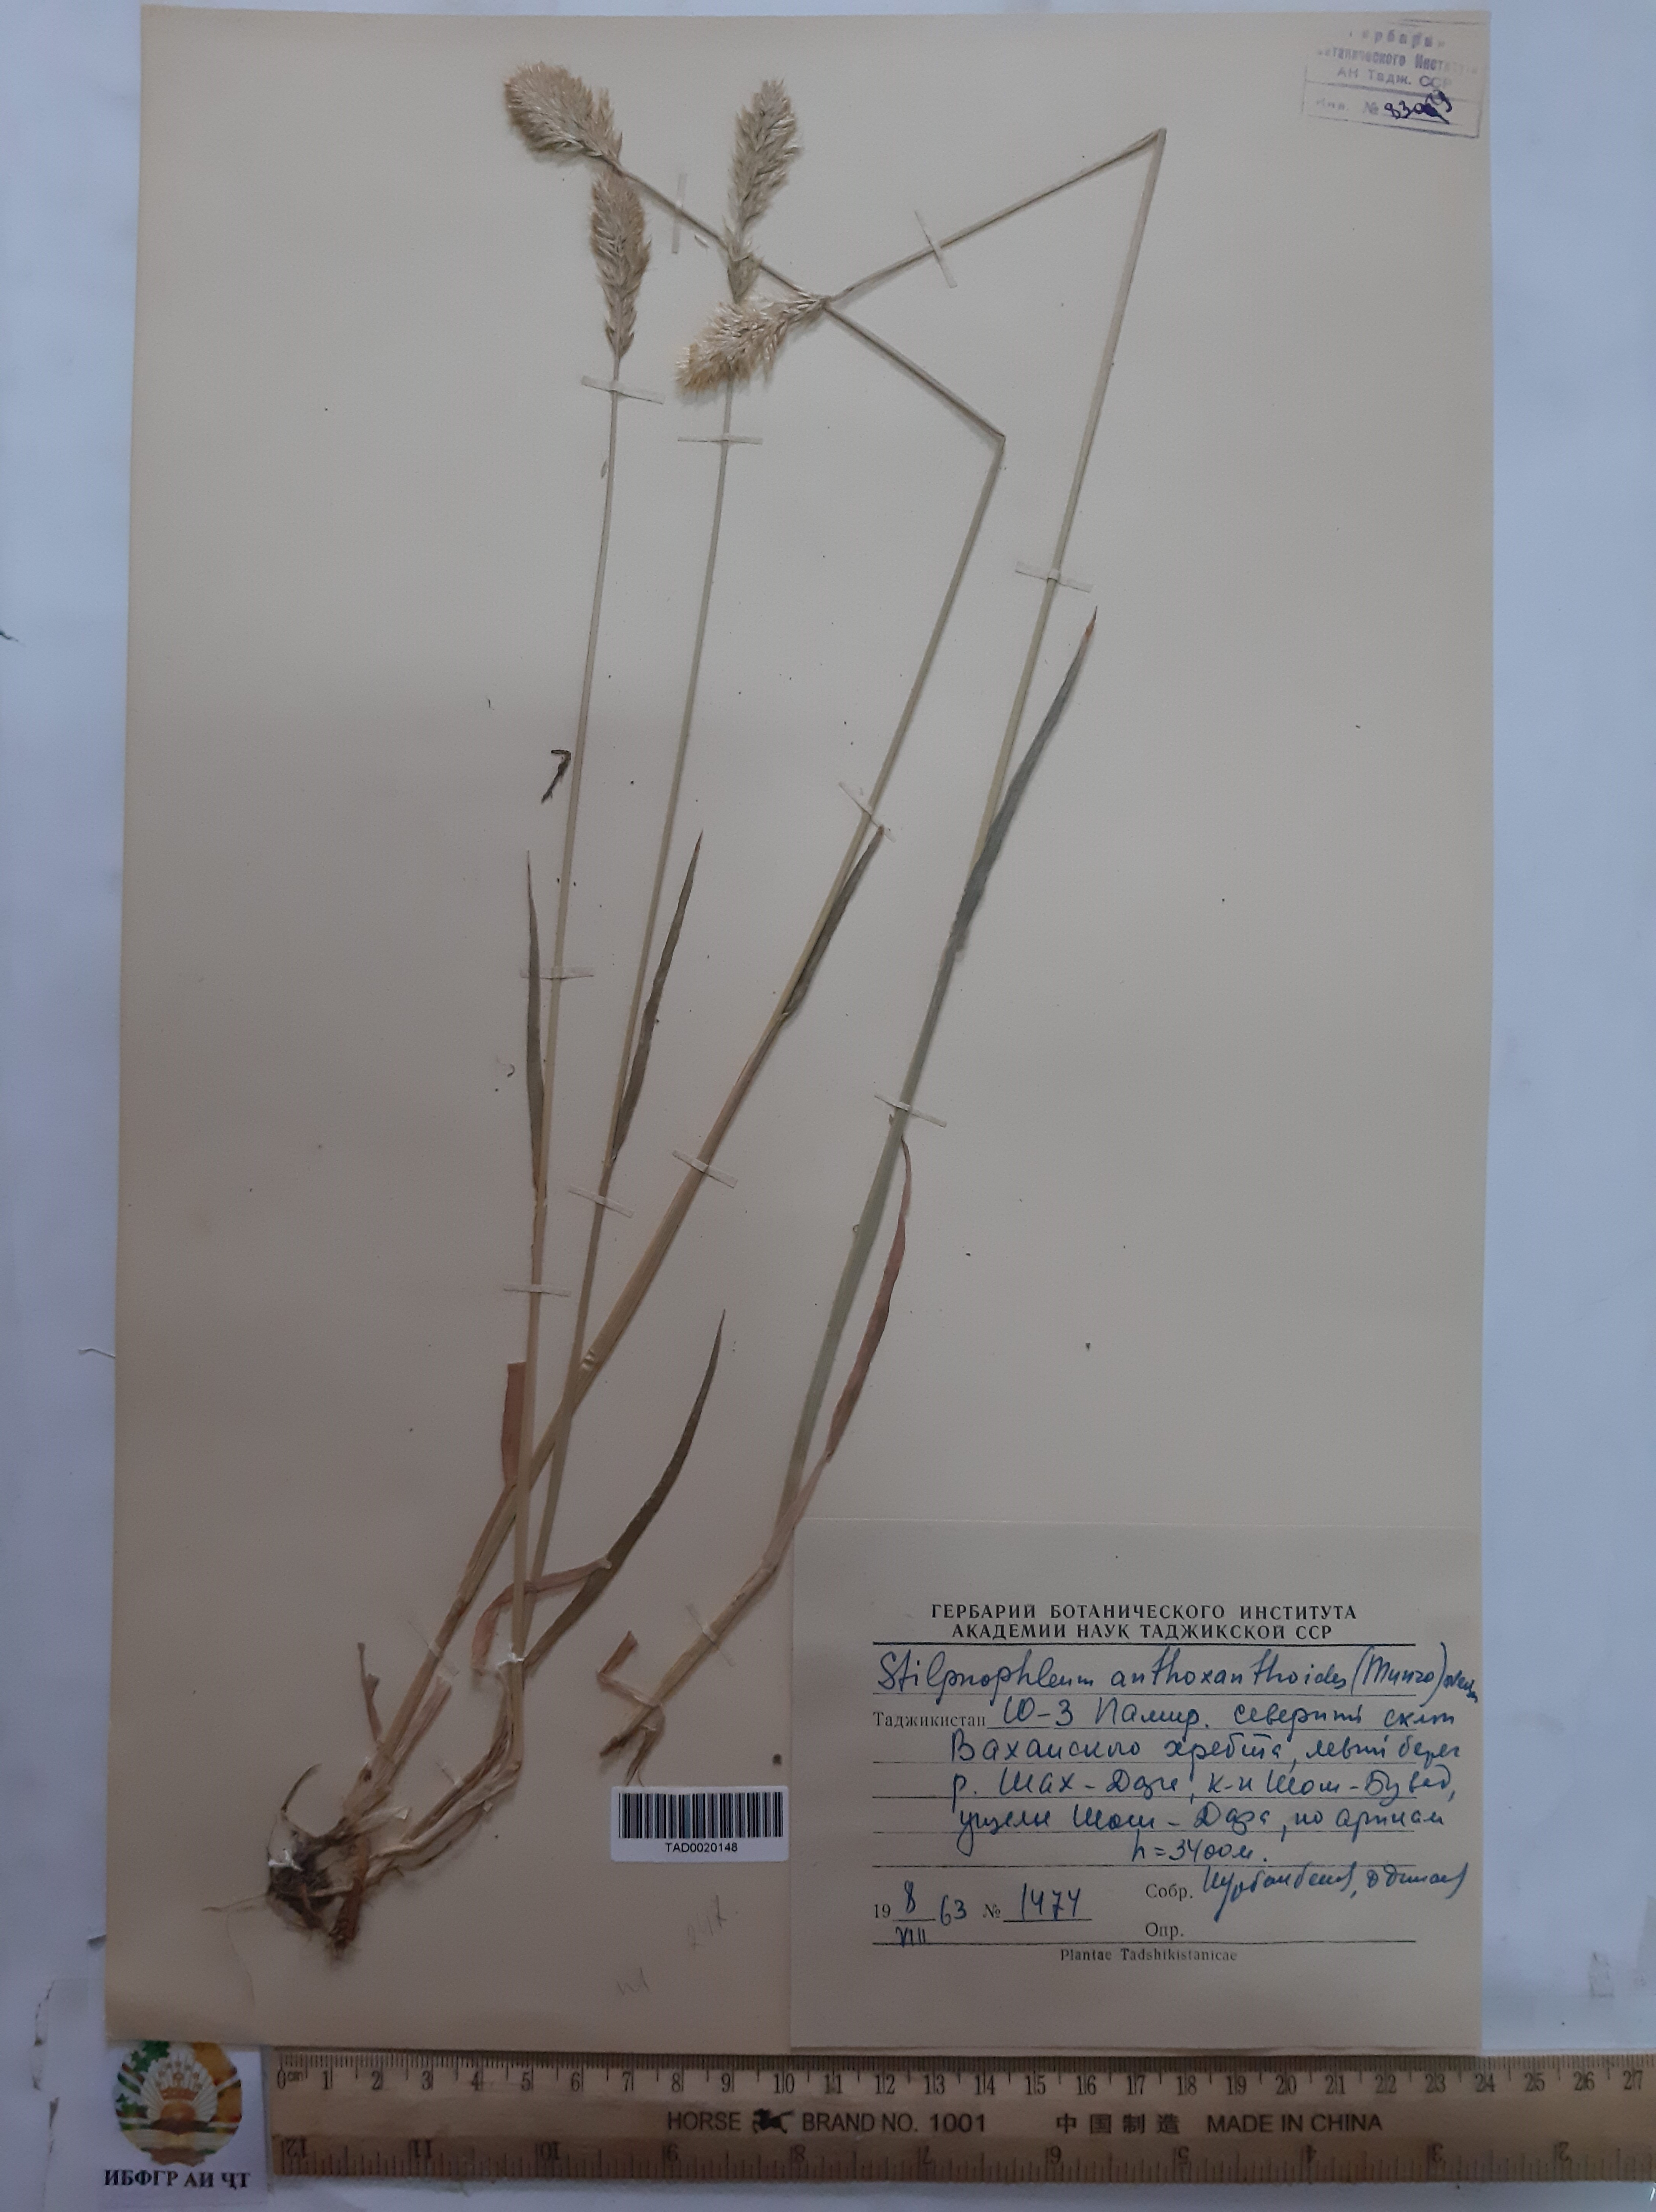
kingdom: Plantae
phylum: Tracheophyta
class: Liliopsida
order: Poales
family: Poaceae
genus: Calamagrostis
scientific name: Calamagrostis anthoxanthoides
